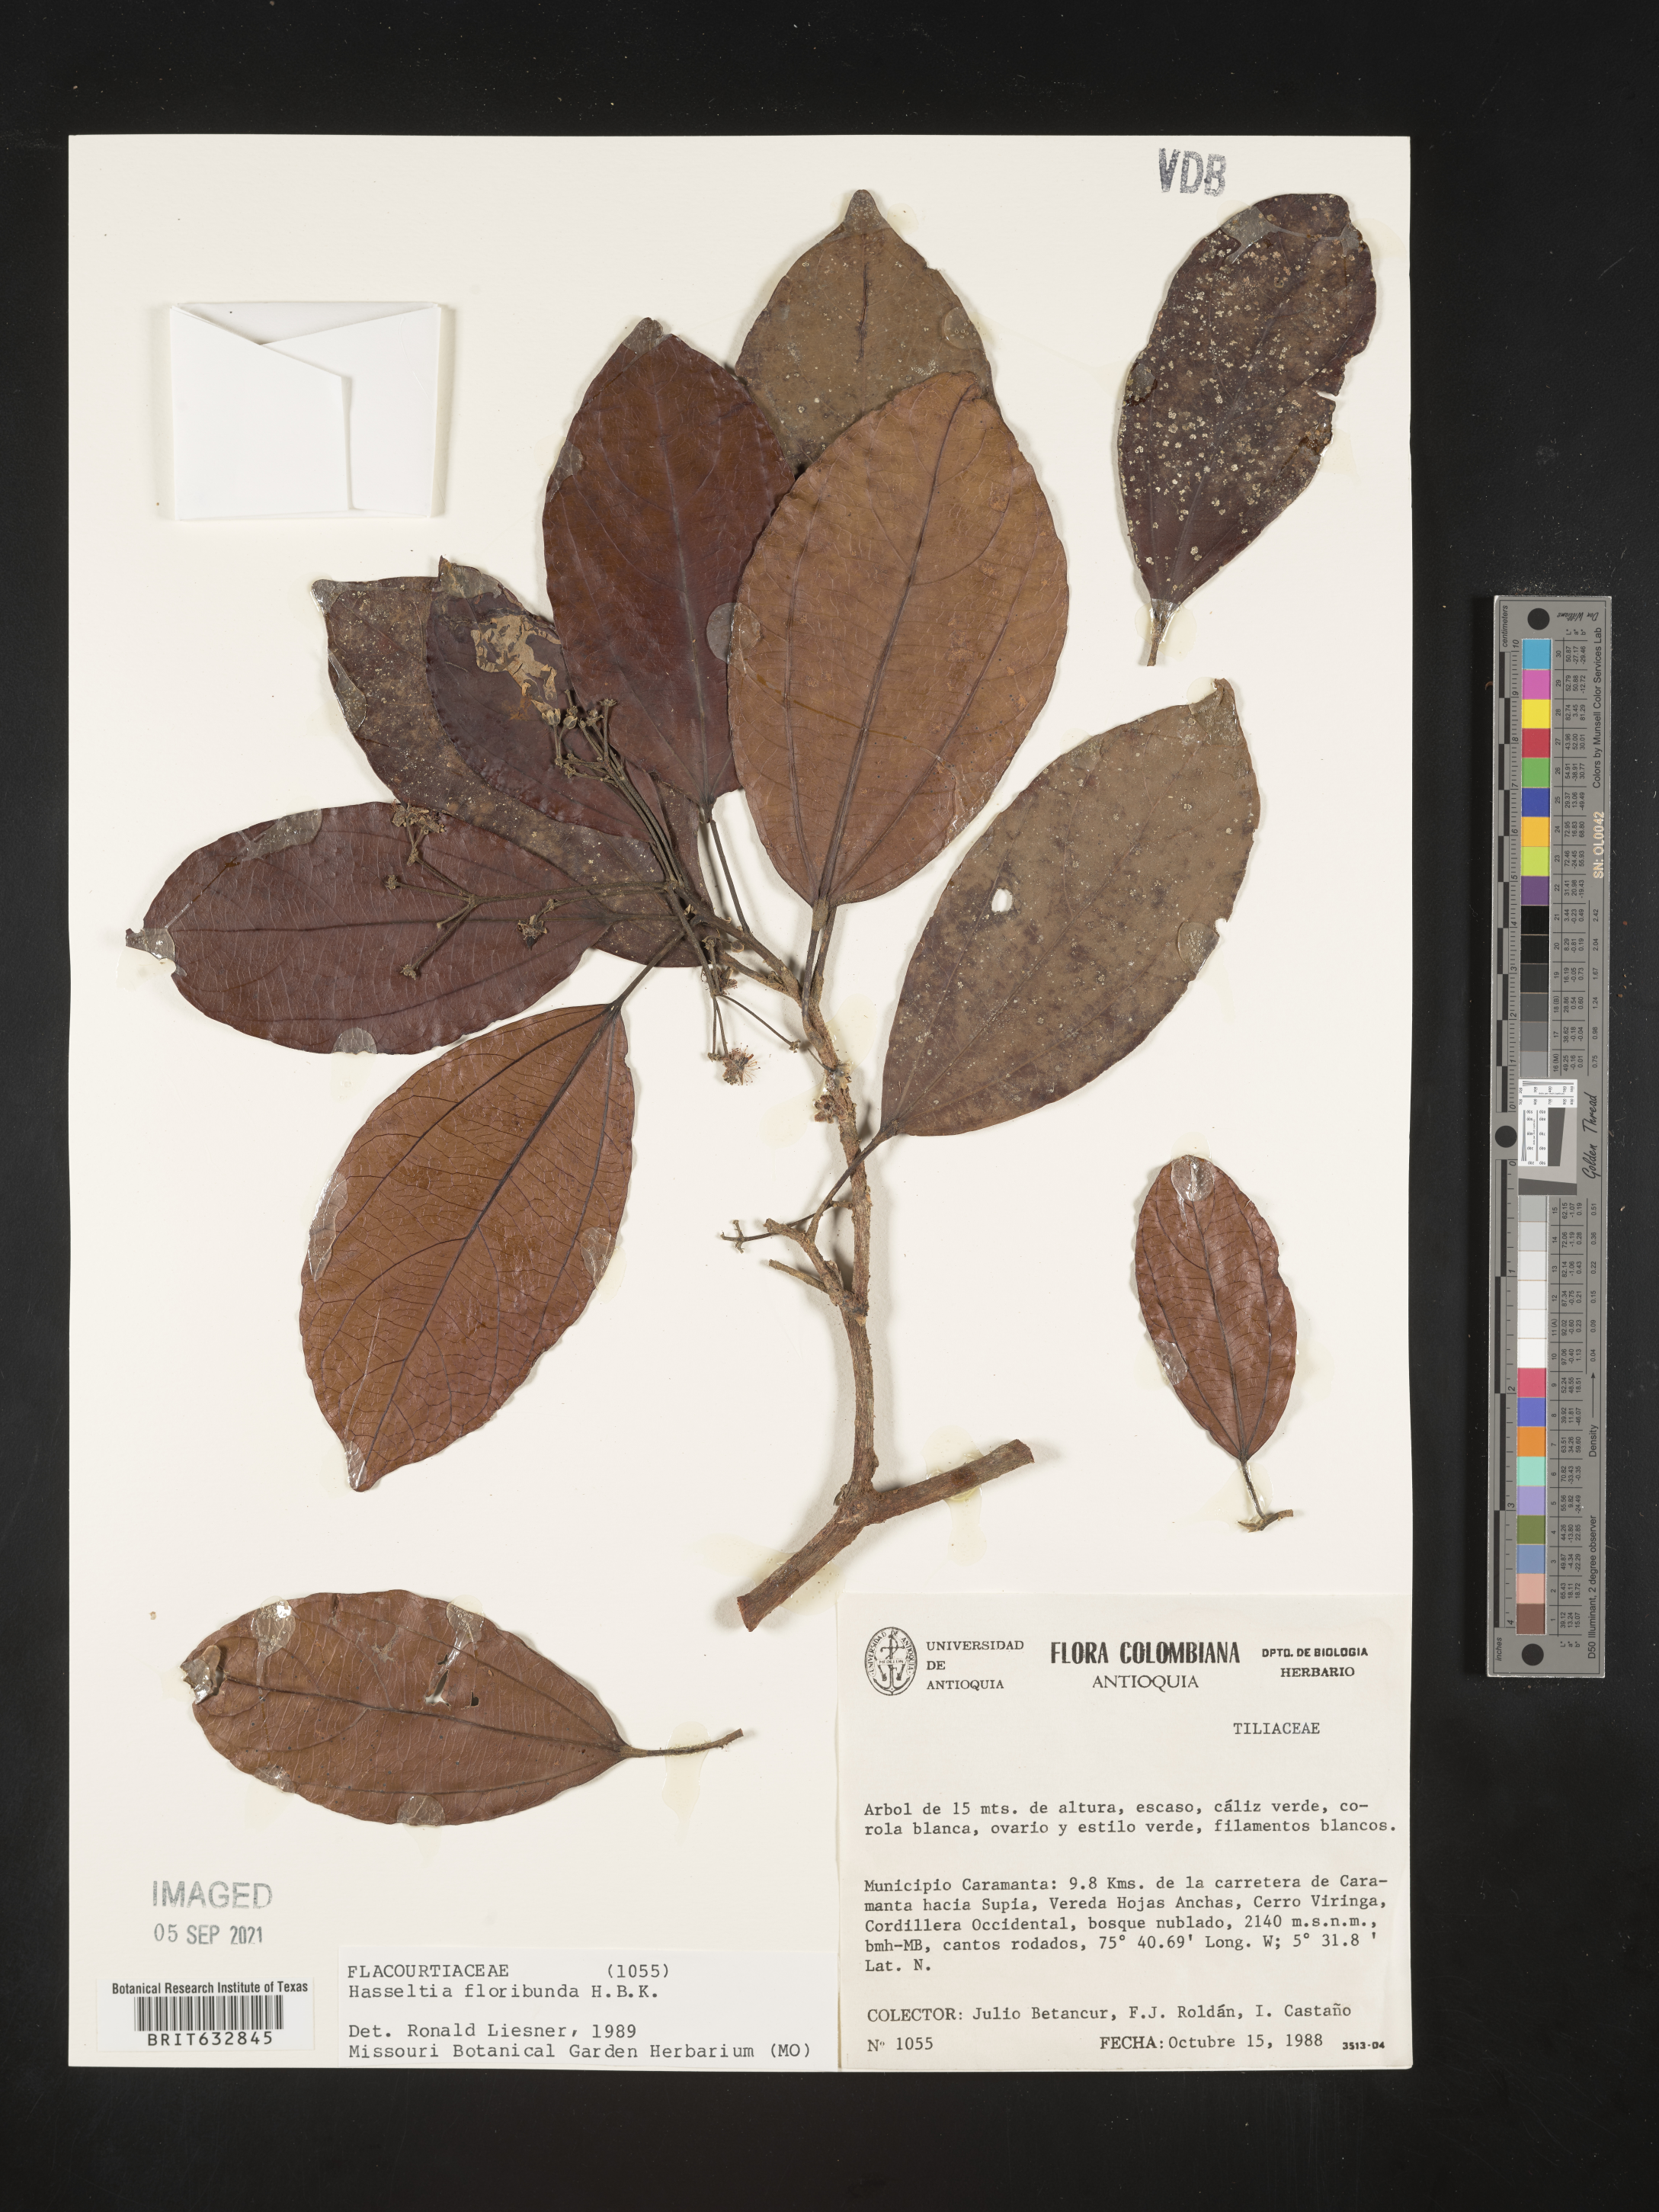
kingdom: Plantae
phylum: Tracheophyta
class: Magnoliopsida
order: Malpighiales
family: Salicaceae
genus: Hasseltia
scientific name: Hasseltia
